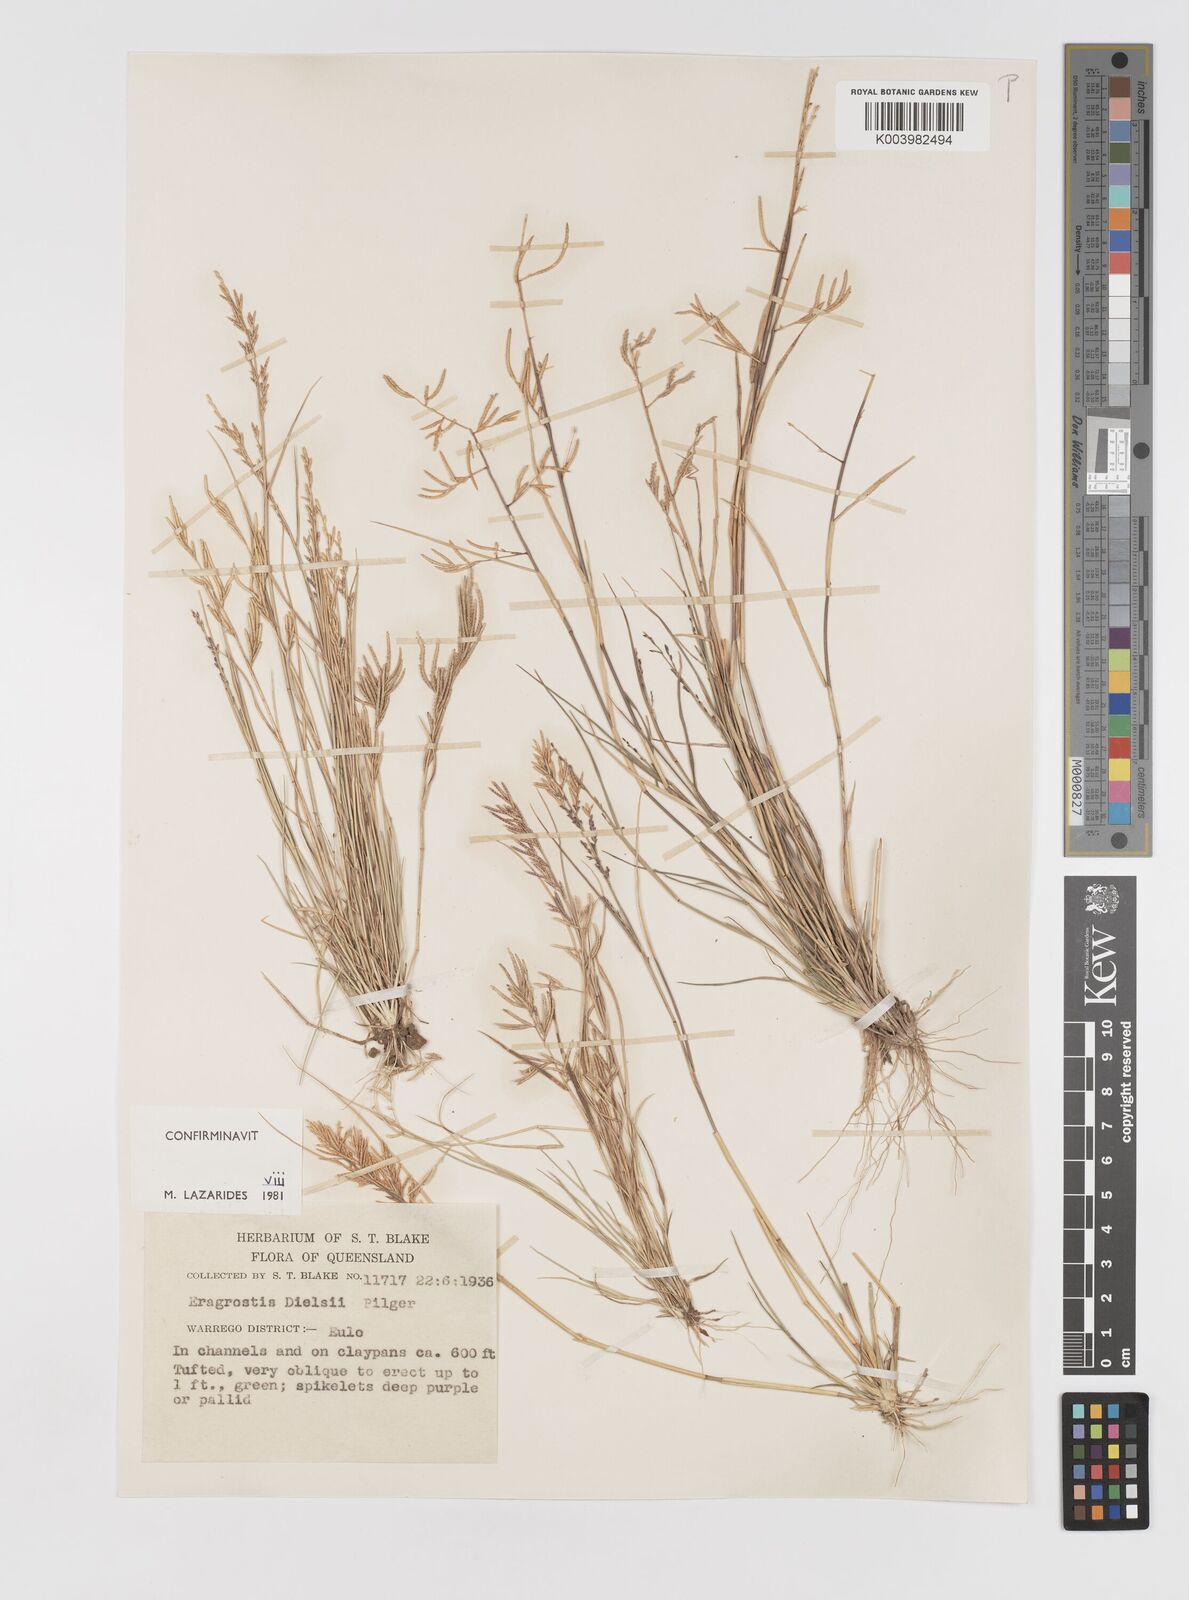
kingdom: Plantae
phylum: Tracheophyta
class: Liliopsida
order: Poales
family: Poaceae
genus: Eragrostis
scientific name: Eragrostis dielsii
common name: Lovegrass
